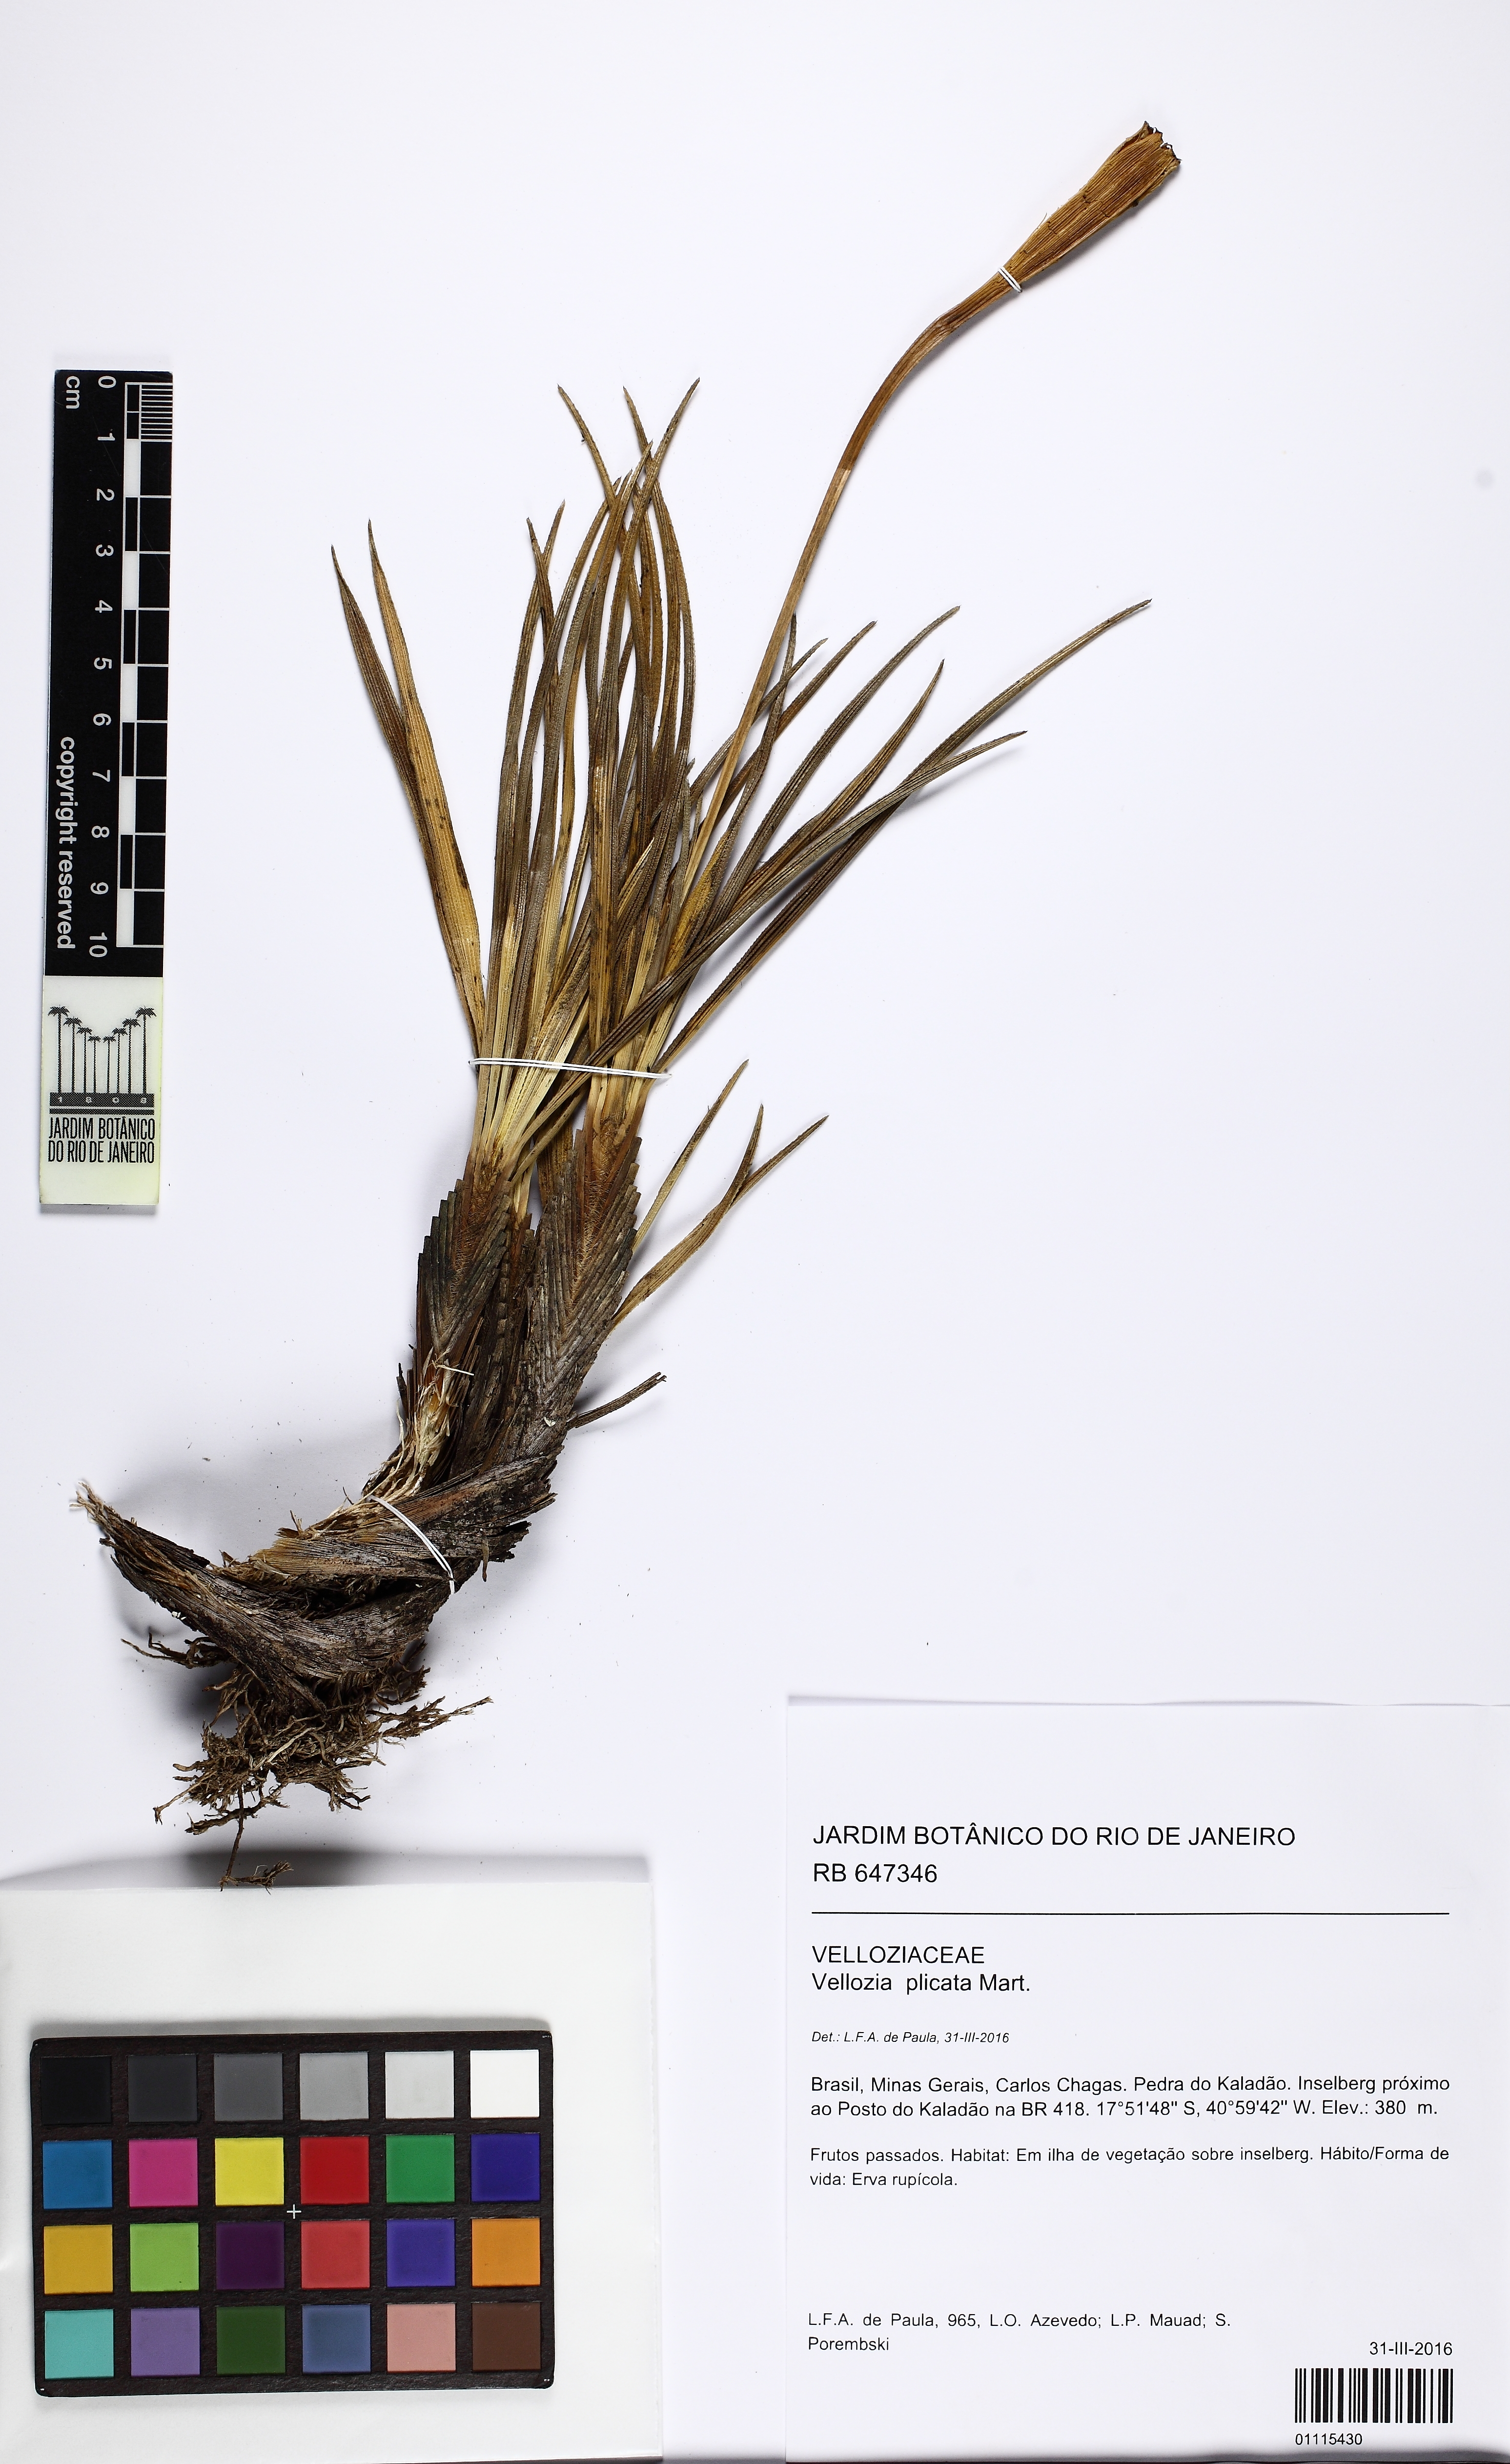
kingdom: Plantae
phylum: Tracheophyta
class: Liliopsida
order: Pandanales
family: Velloziaceae
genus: Nanuza
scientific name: Nanuza plicata
